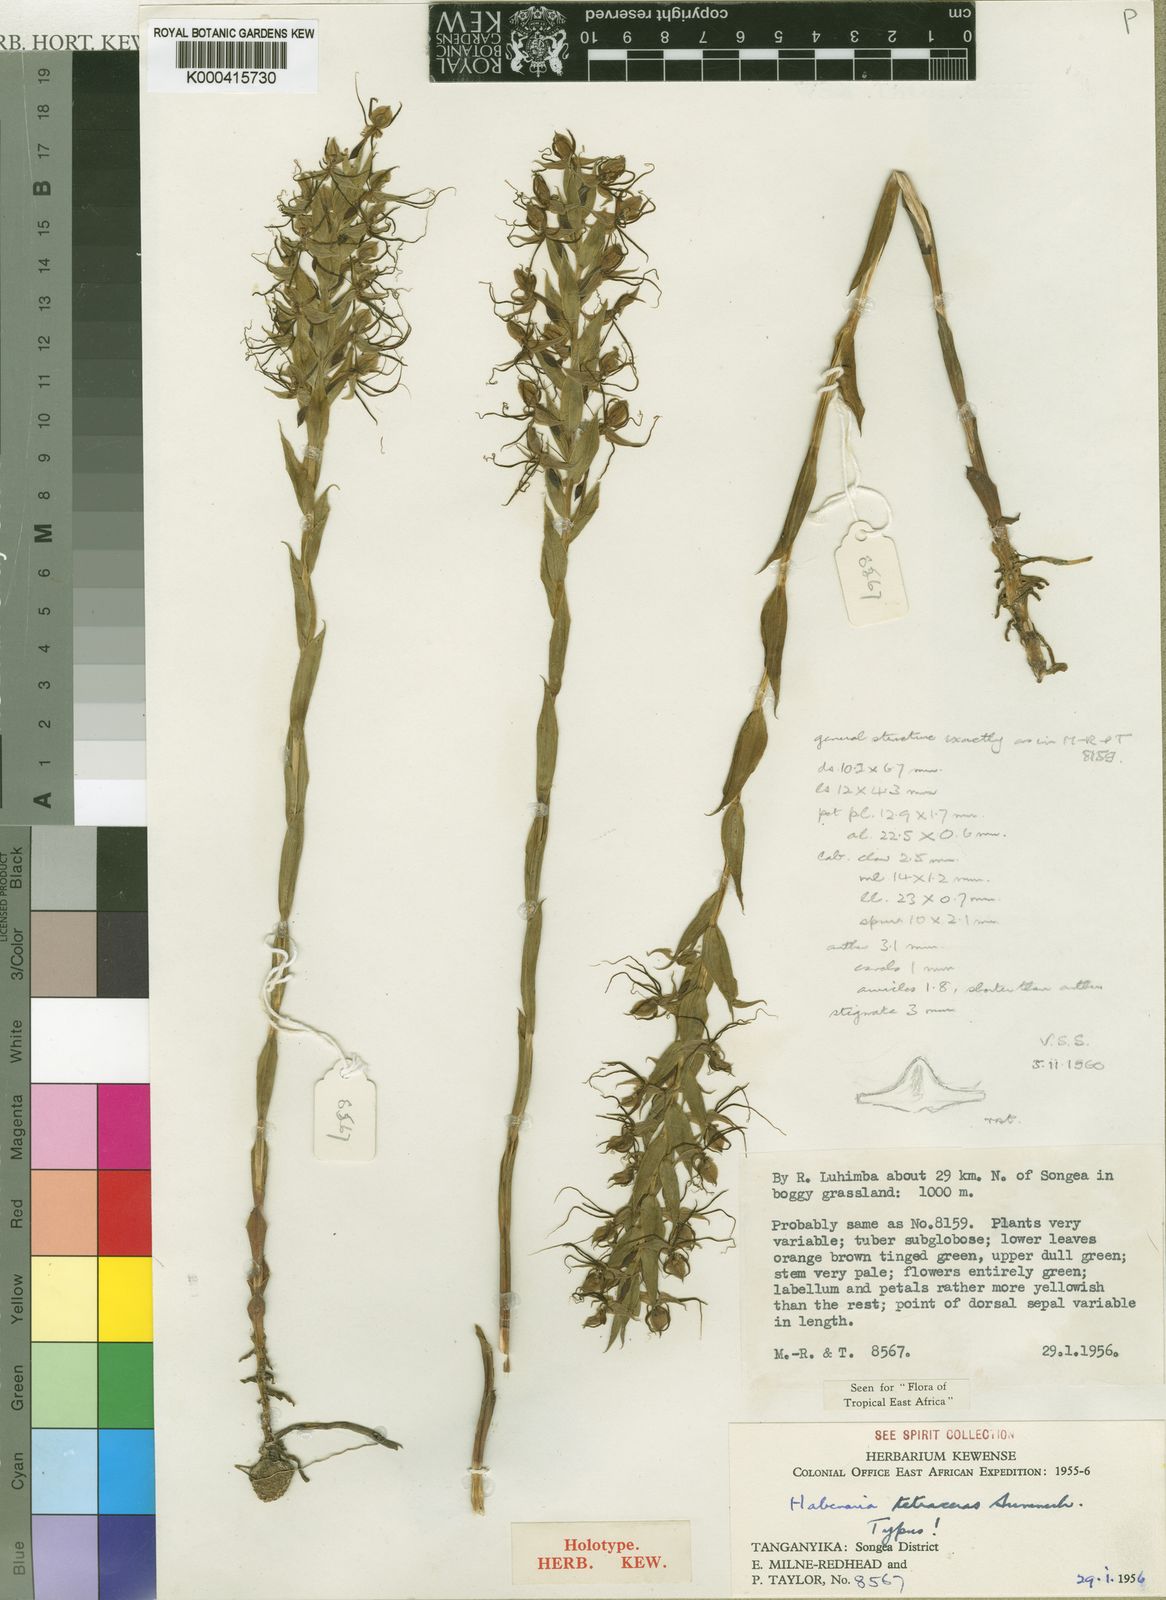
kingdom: Plantae
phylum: Tracheophyta
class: Liliopsida
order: Asparagales
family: Orchidaceae
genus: Habenaria
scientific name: Habenaria tetraceras
